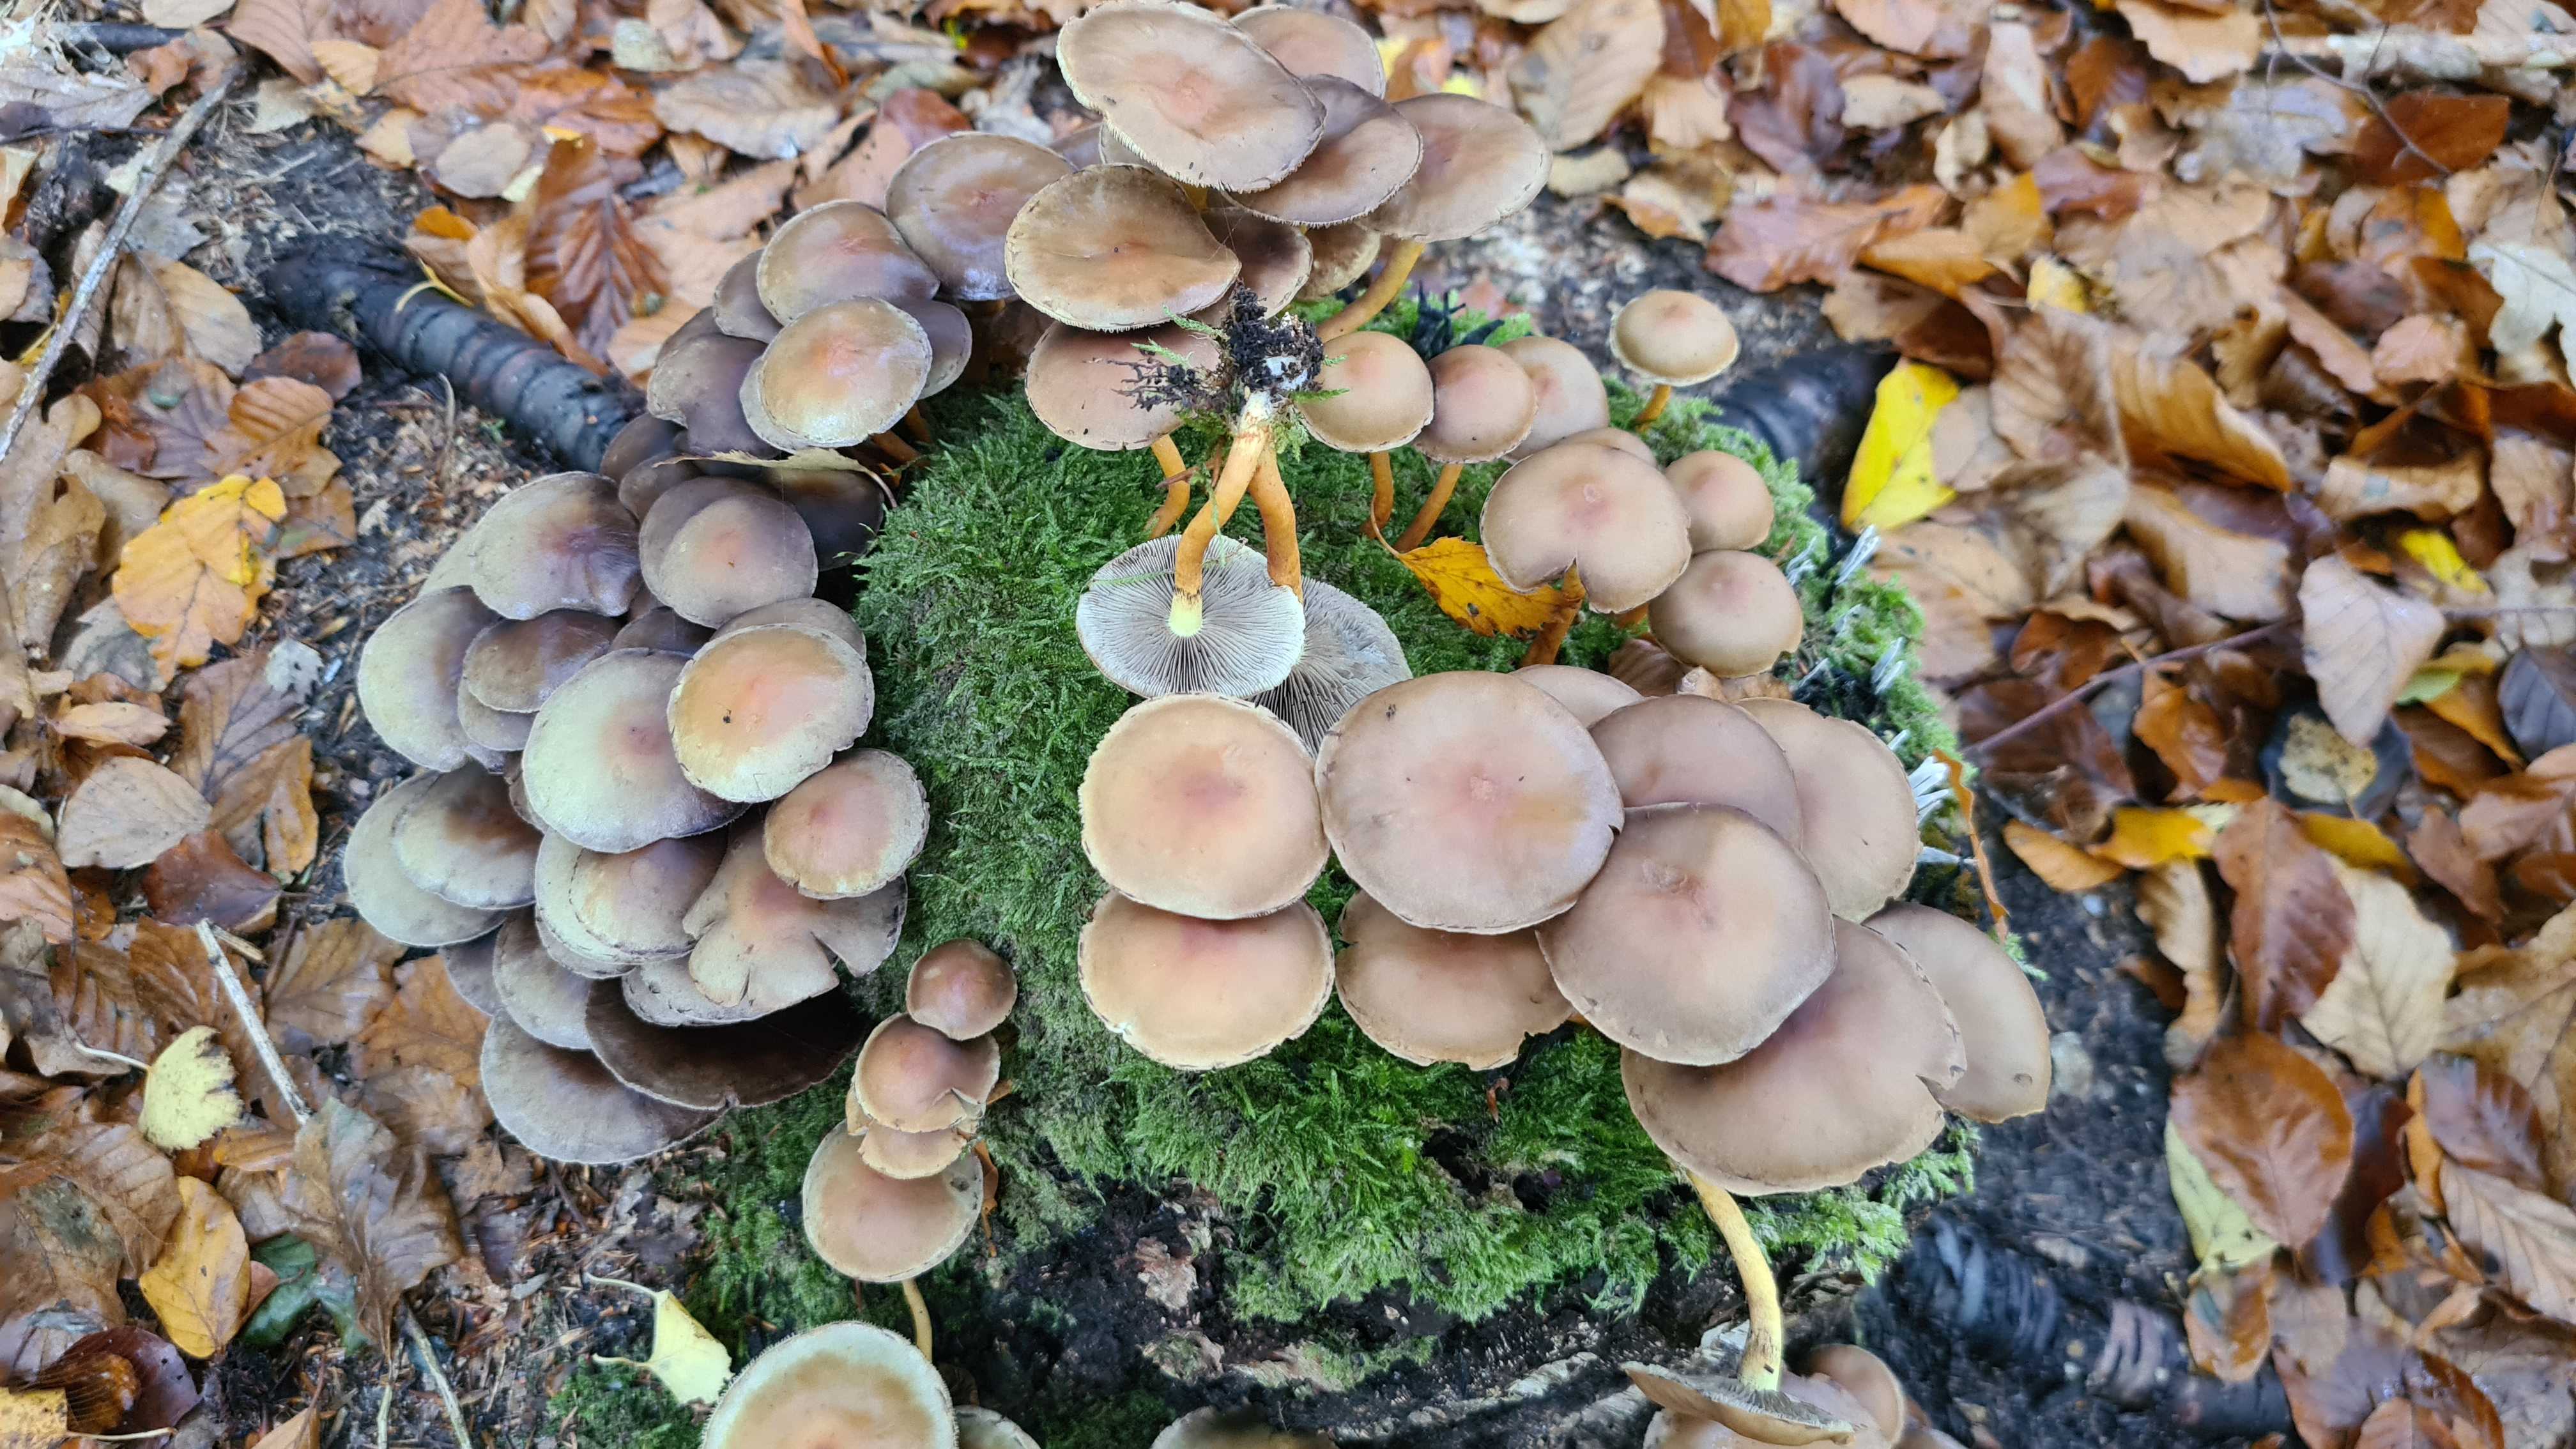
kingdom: Fungi
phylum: Basidiomycota
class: Agaricomycetes
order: Agaricales
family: Strophariaceae
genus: Hypholoma
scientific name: Hypholoma capnoides
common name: gran-svovlhat
